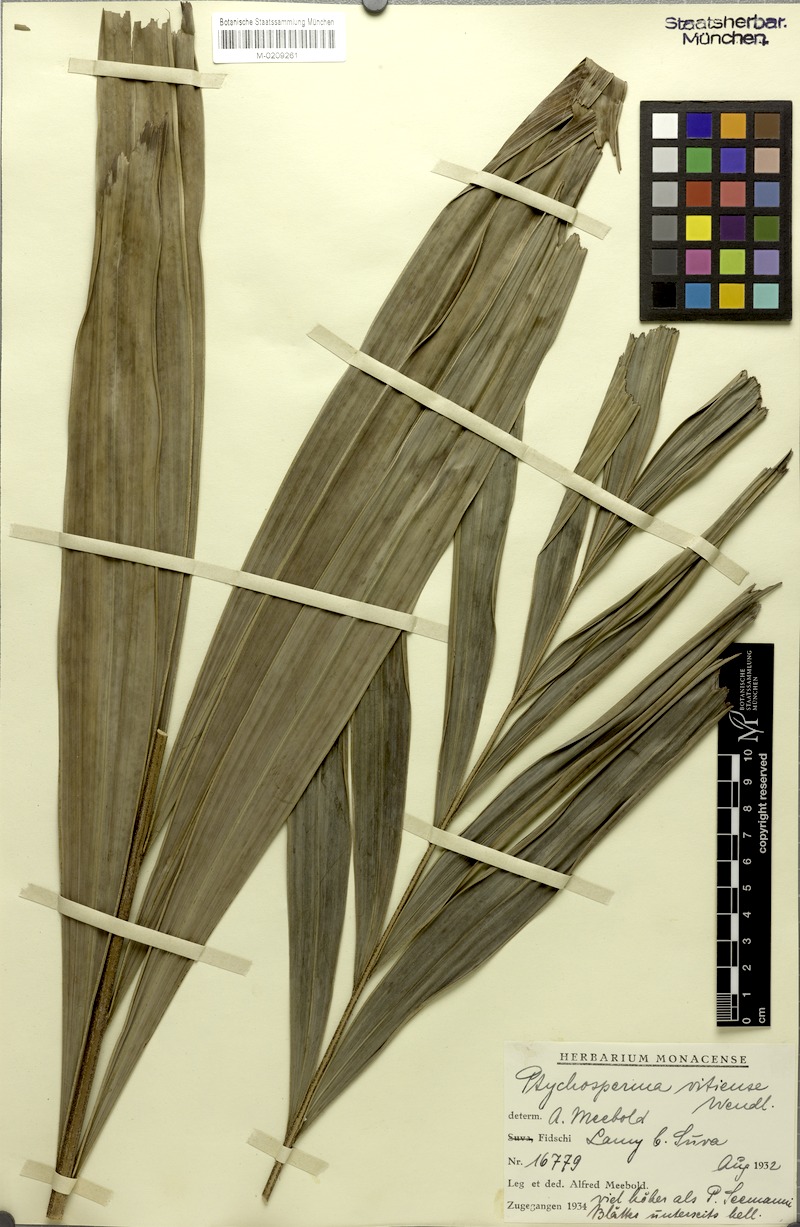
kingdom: Plantae
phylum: Tracheophyta
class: Liliopsida
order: Arecales
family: Arecaceae
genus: Veitchia
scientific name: Veitchia vitiensis
